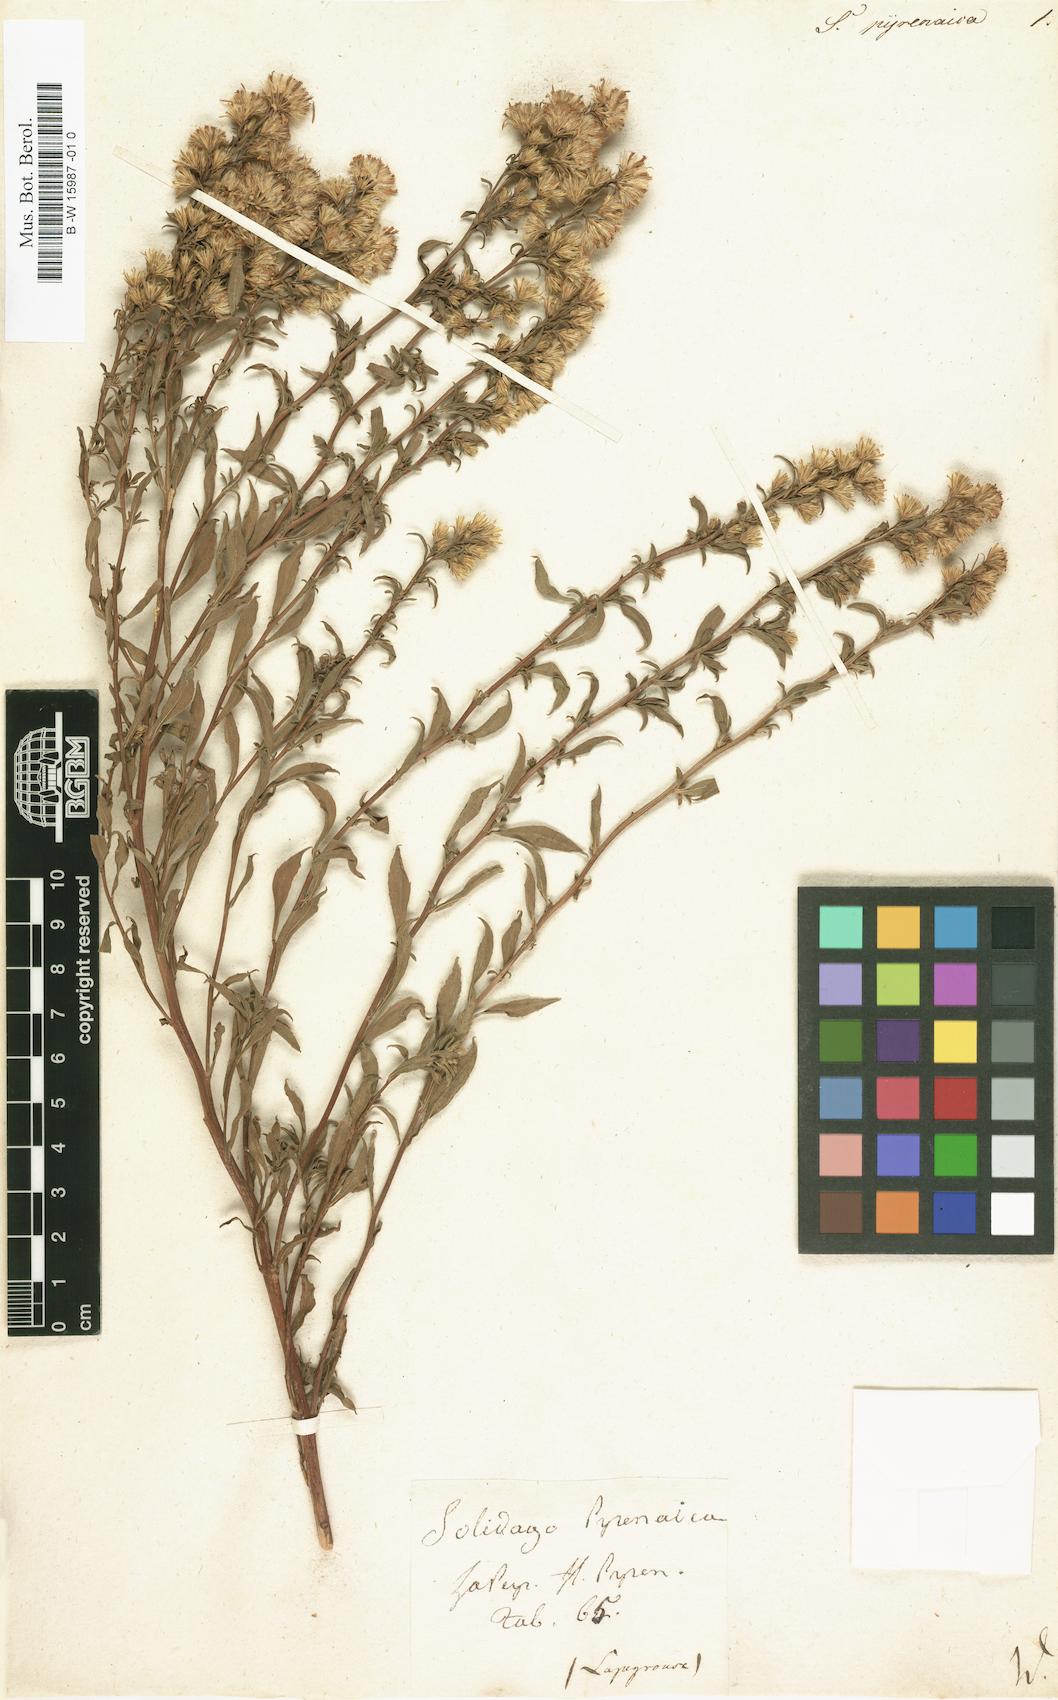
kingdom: Plantae
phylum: Tracheophyta
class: Magnoliopsida
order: Asterales
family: Asteraceae
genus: Solidago
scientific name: Solidago
